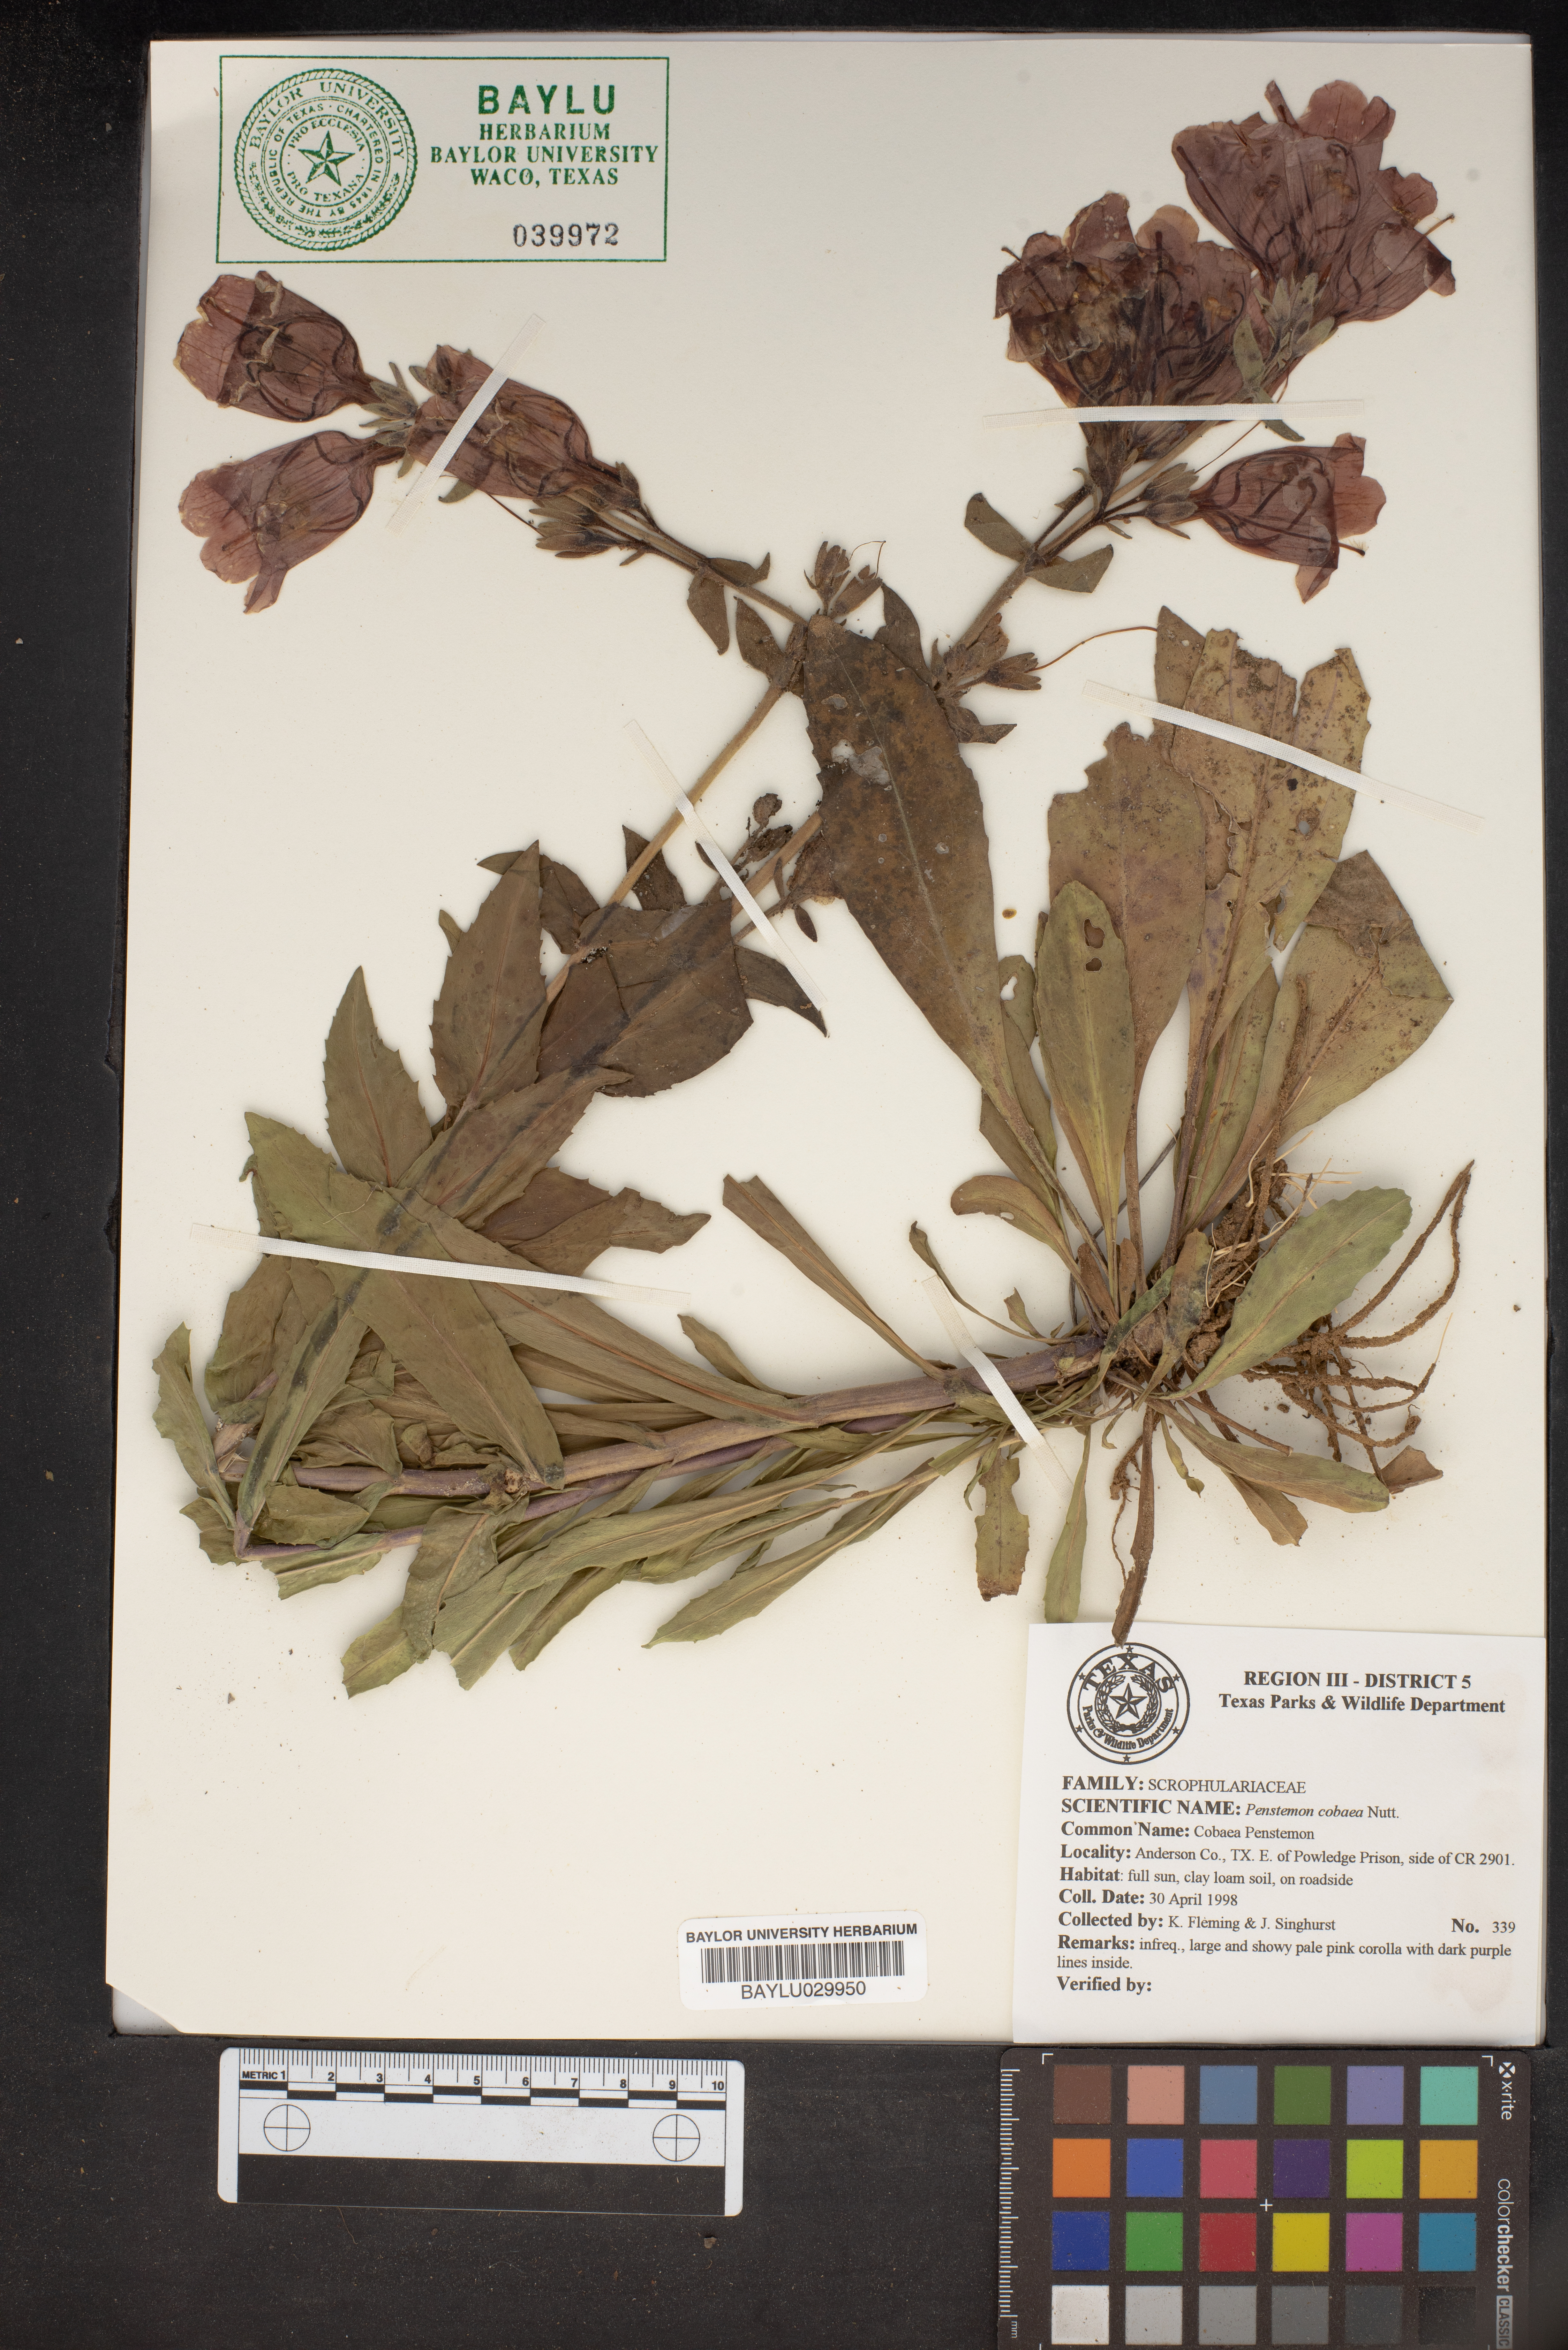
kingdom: Plantae
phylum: Tracheophyta
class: Magnoliopsida
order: Lamiales
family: Plantaginaceae
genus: Penstemon
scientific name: Penstemon cobaea
